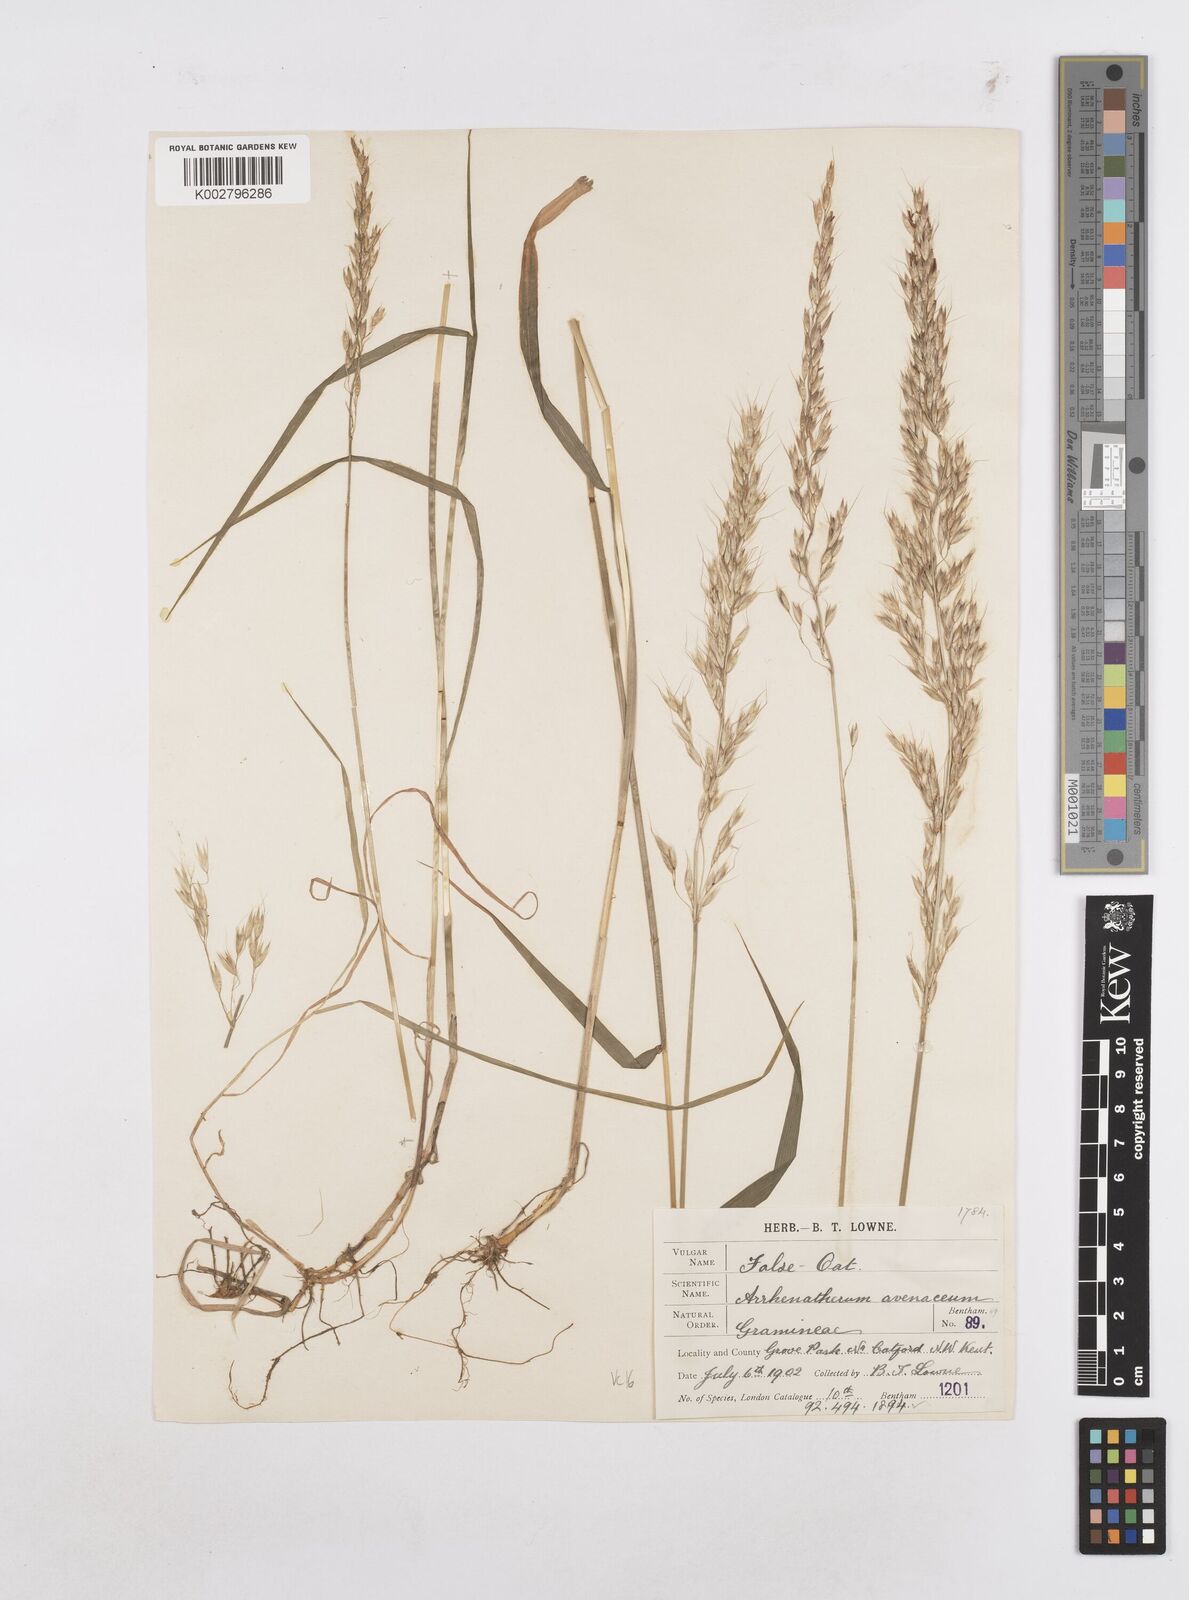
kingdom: Plantae
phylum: Tracheophyta
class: Liliopsida
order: Poales
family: Poaceae
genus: Arrhenatherum
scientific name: Arrhenatherum elatius
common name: Tall oatgrass
